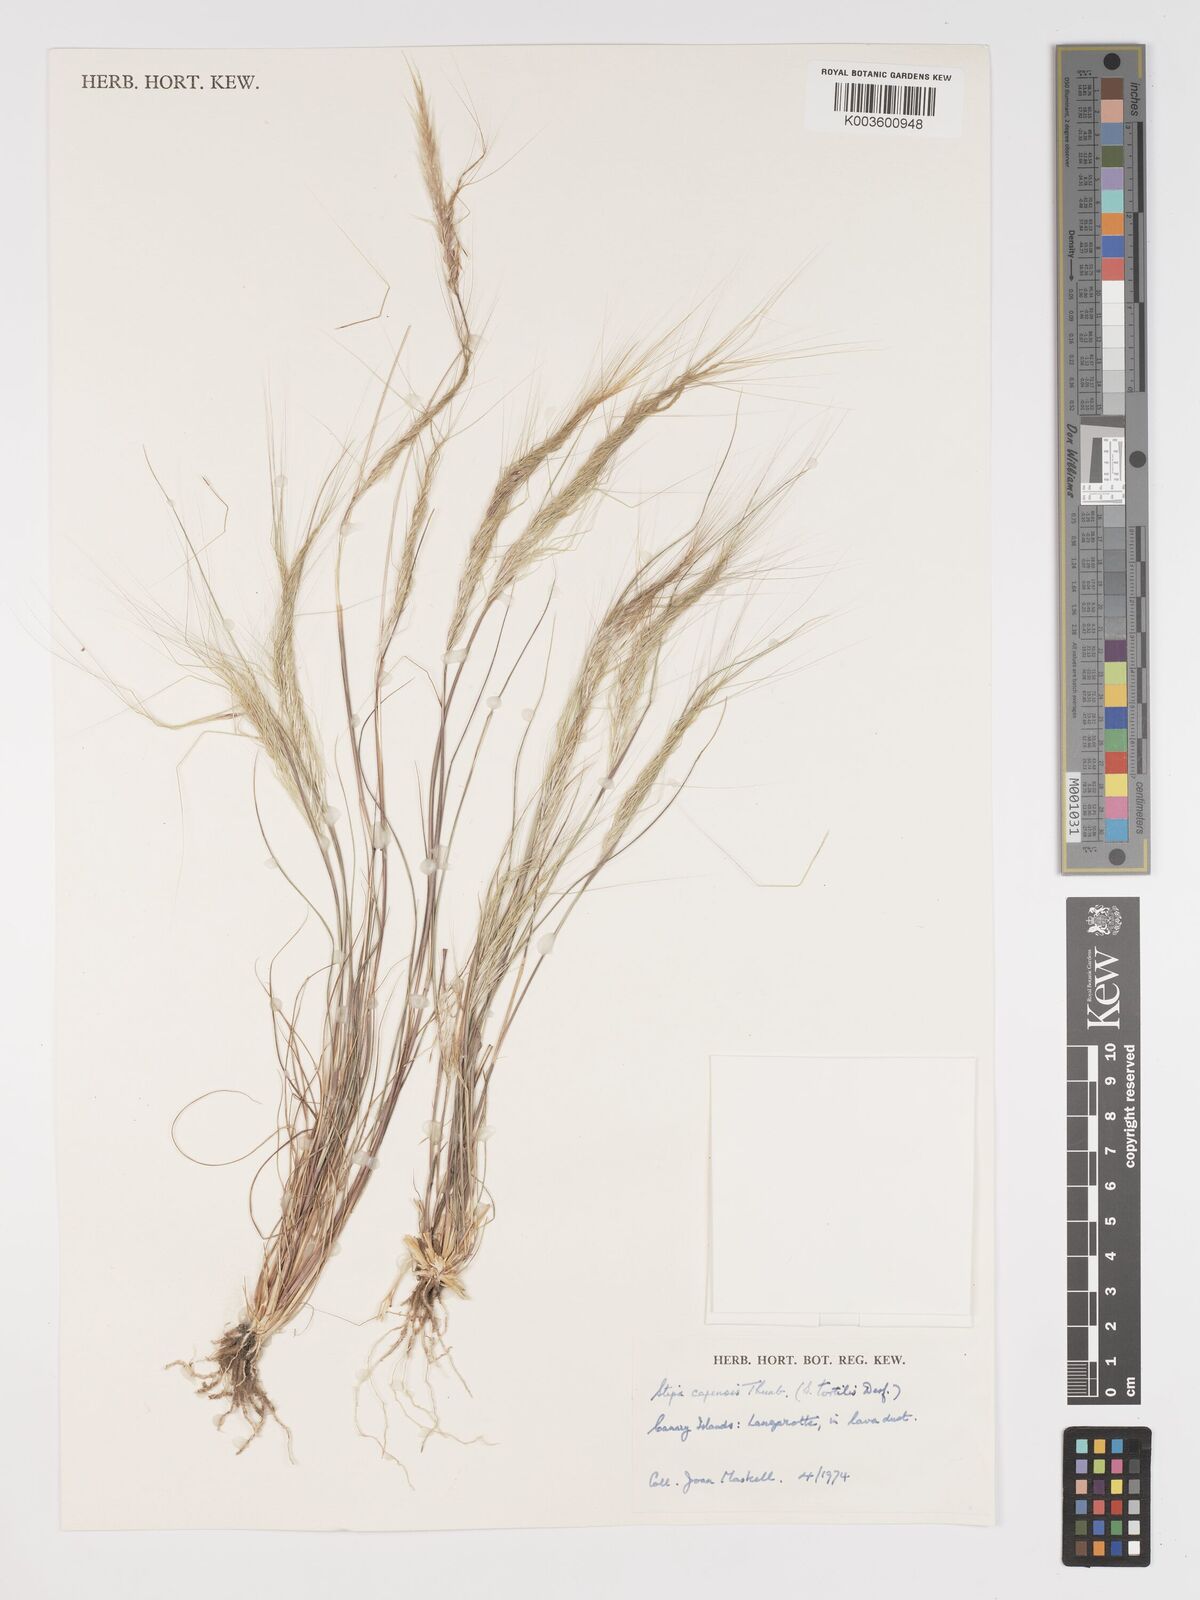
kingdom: Plantae
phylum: Tracheophyta
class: Liliopsida
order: Poales
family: Poaceae
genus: Stipa
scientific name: Stipa dregeana
